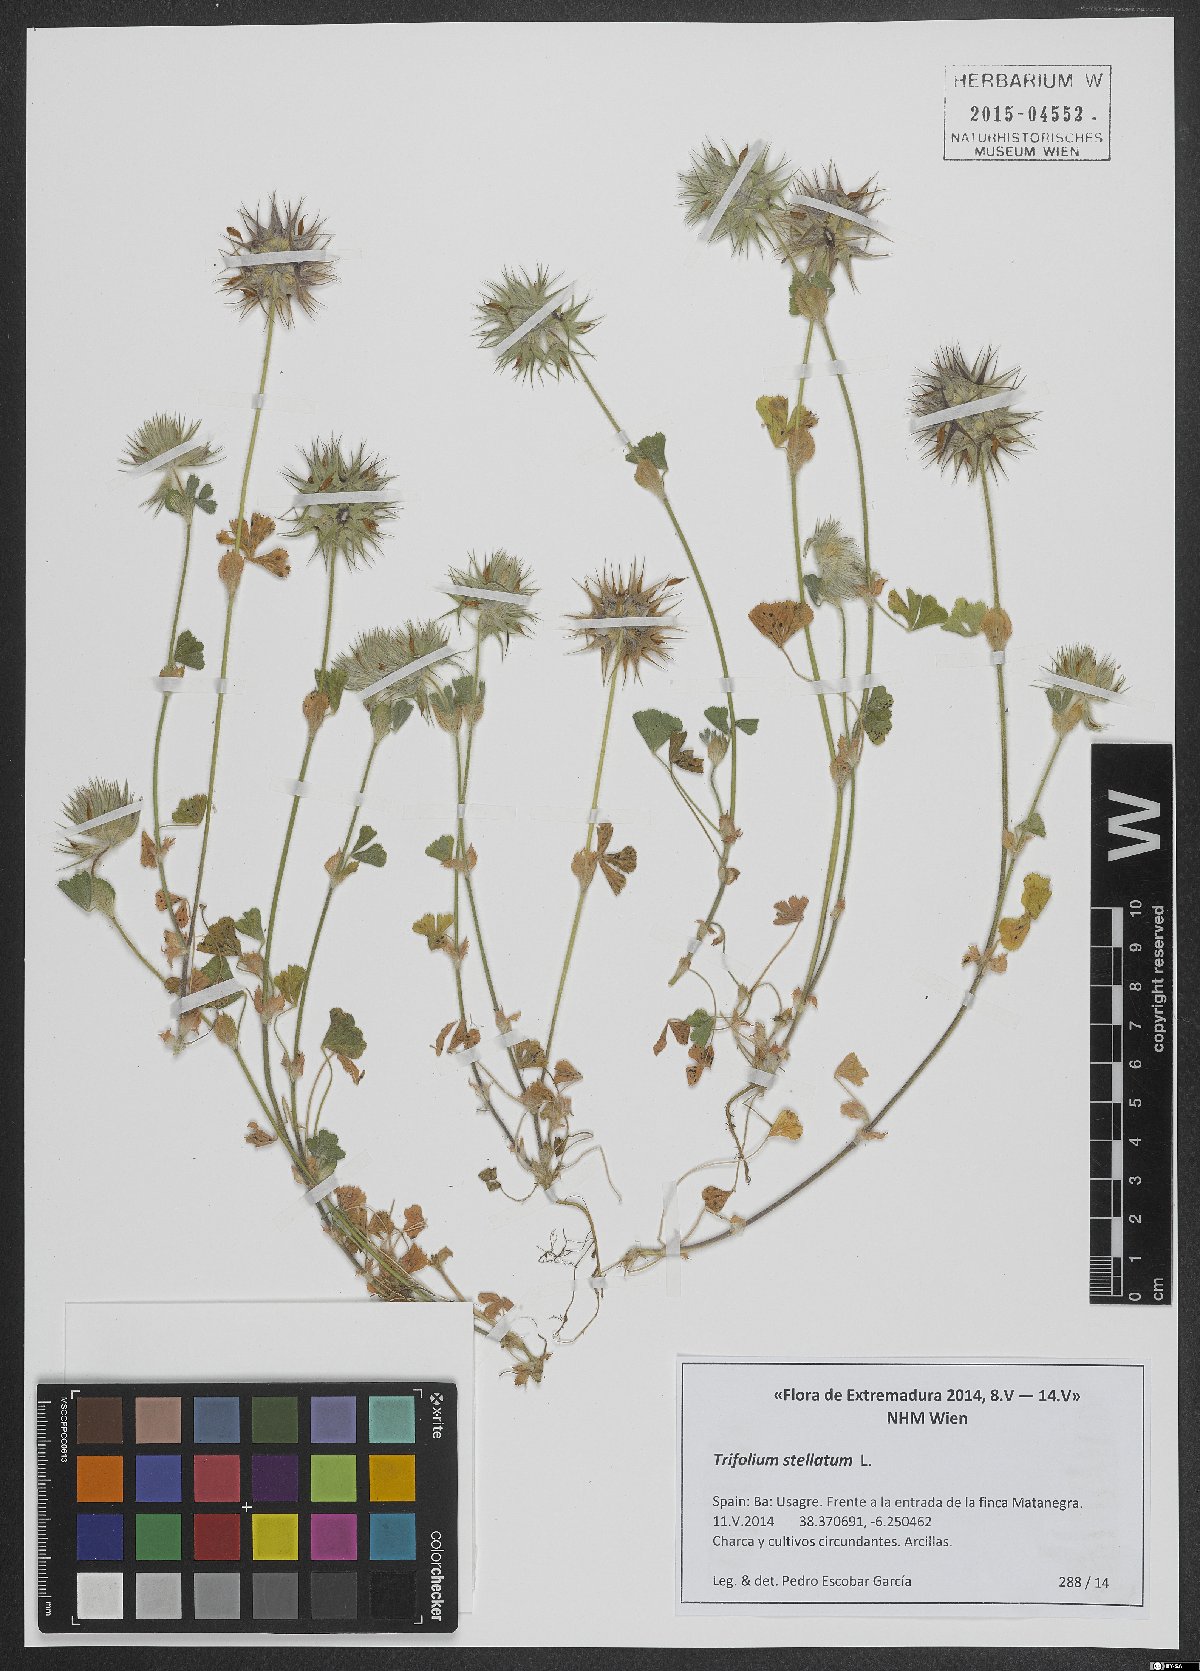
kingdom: Plantae
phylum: Tracheophyta
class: Magnoliopsida
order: Fabales
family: Fabaceae
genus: Trifolium
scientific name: Trifolium stellatum
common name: Starry clover
